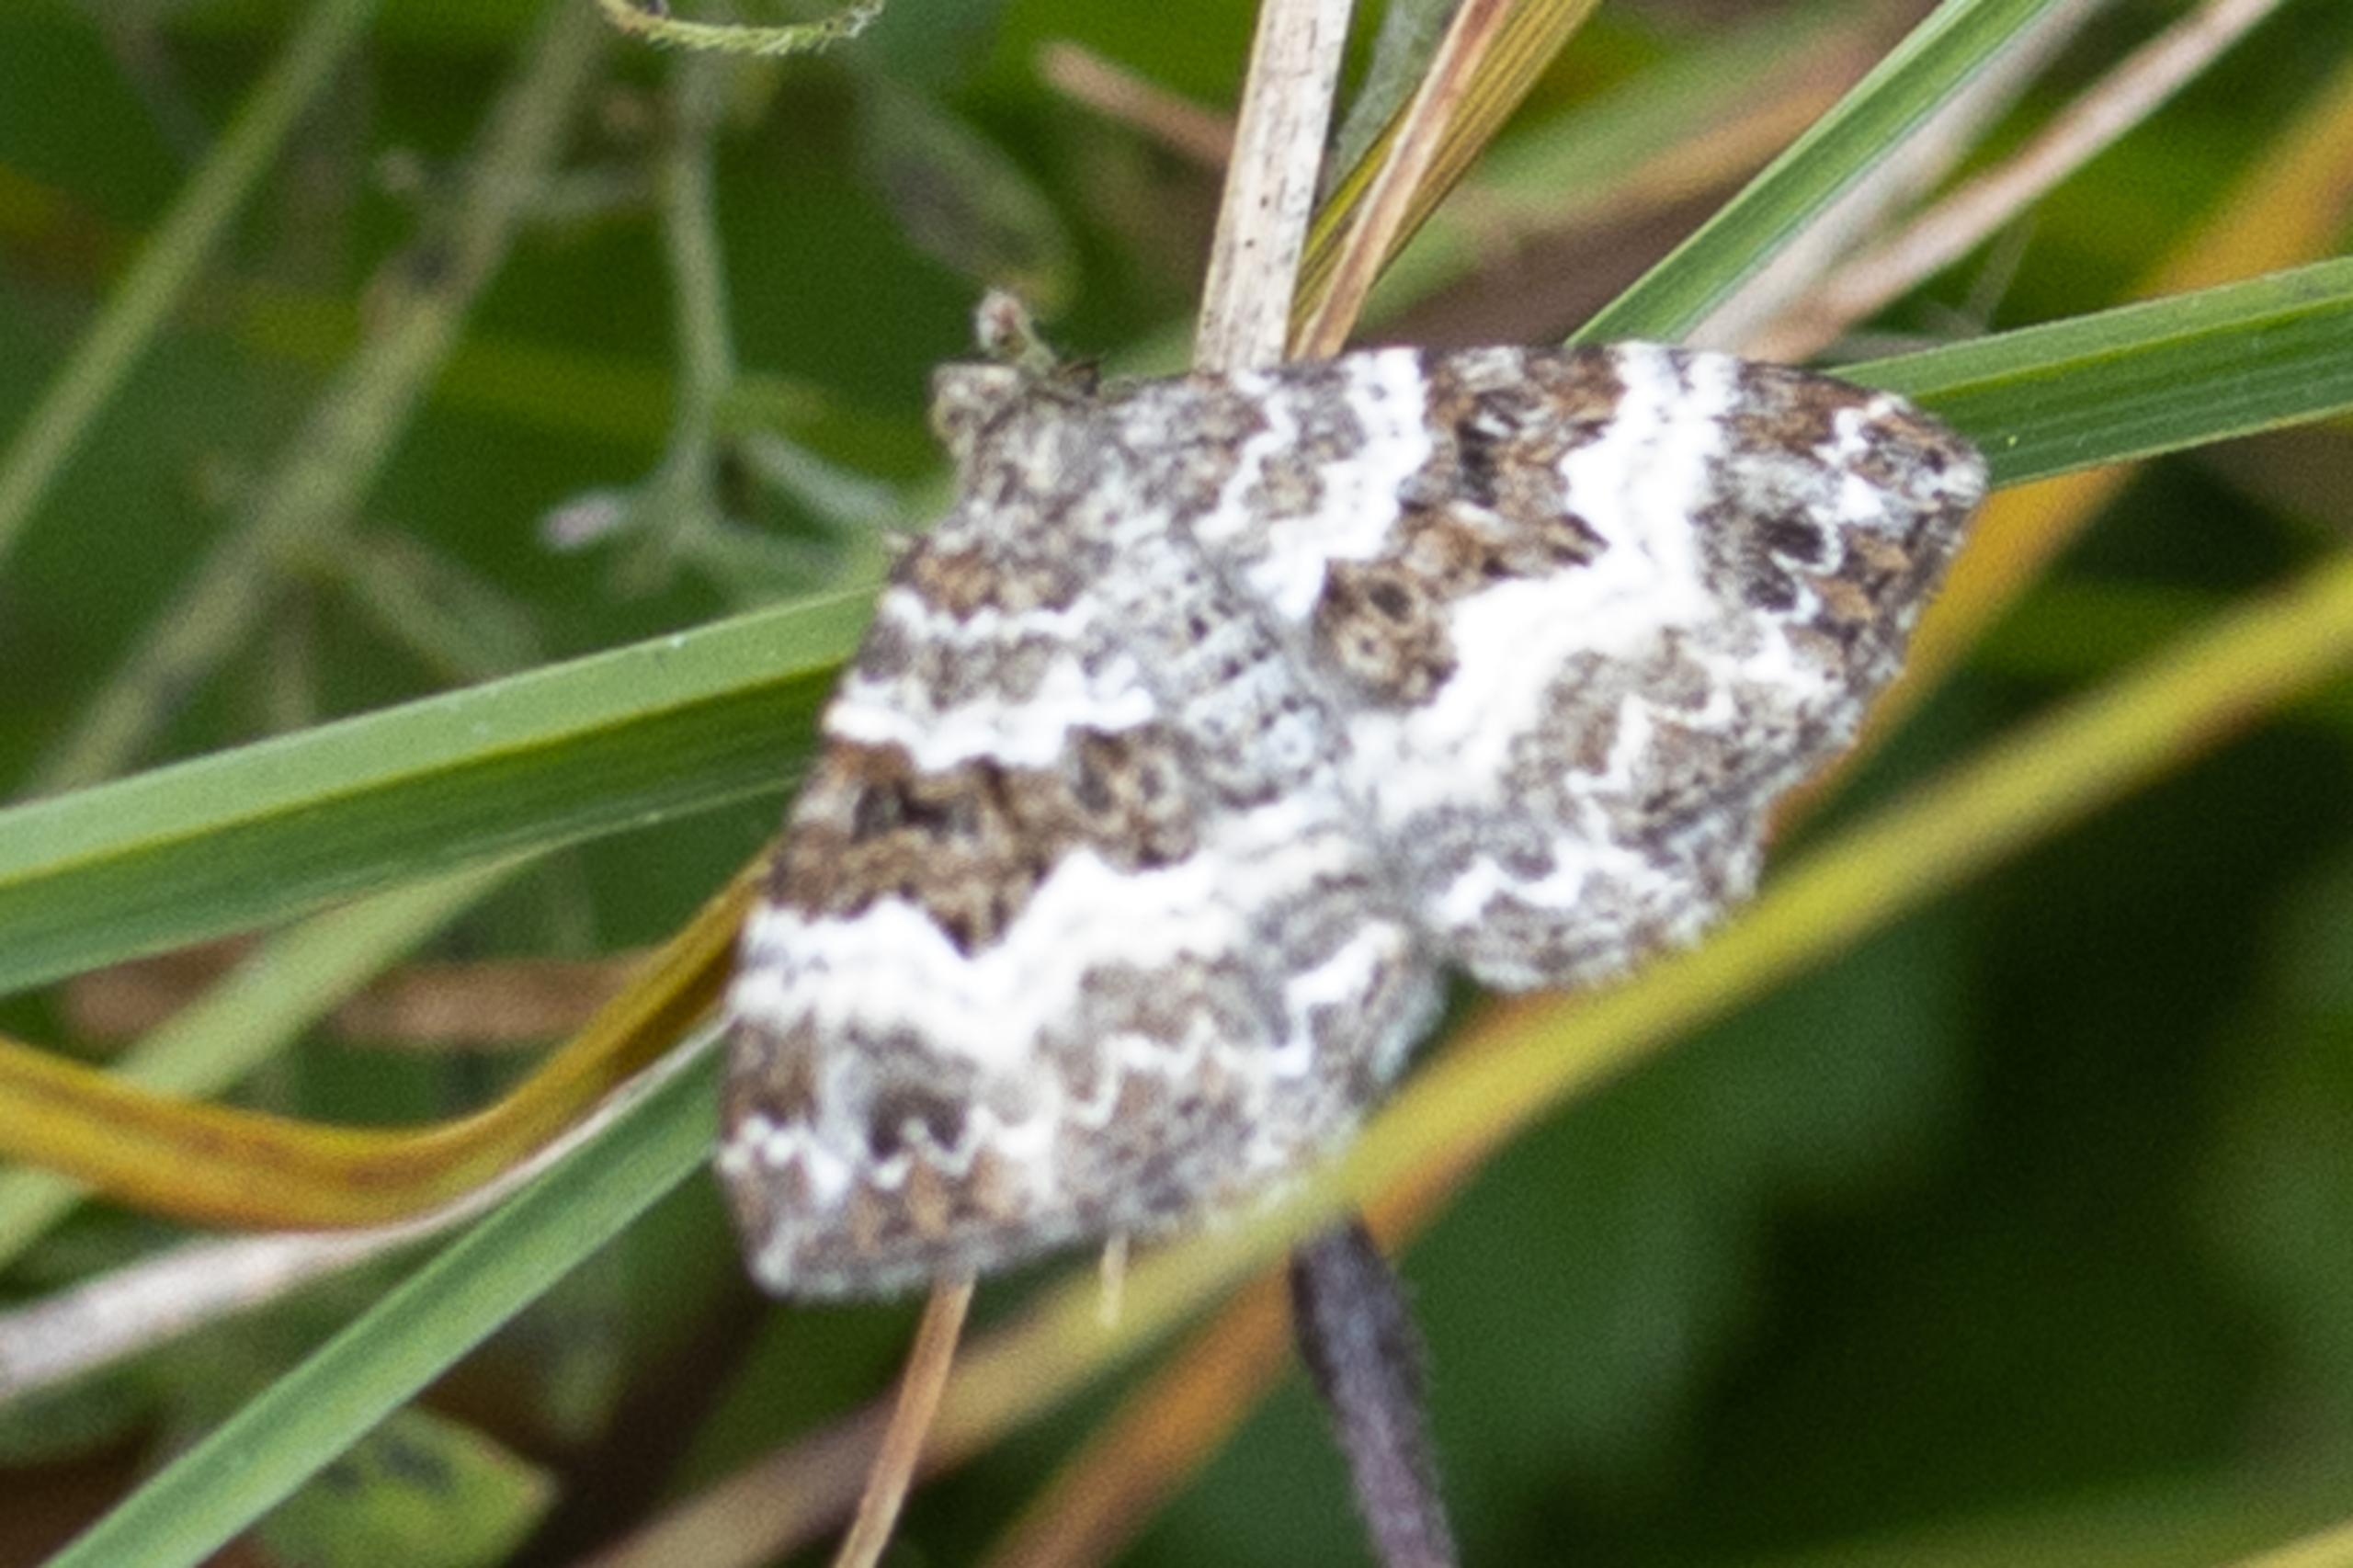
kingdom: Animalia
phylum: Arthropoda
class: Insecta
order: Lepidoptera
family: Geometridae
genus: Epirrhoe
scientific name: Epirrhoe alternata
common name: Almindelig bladmåler
